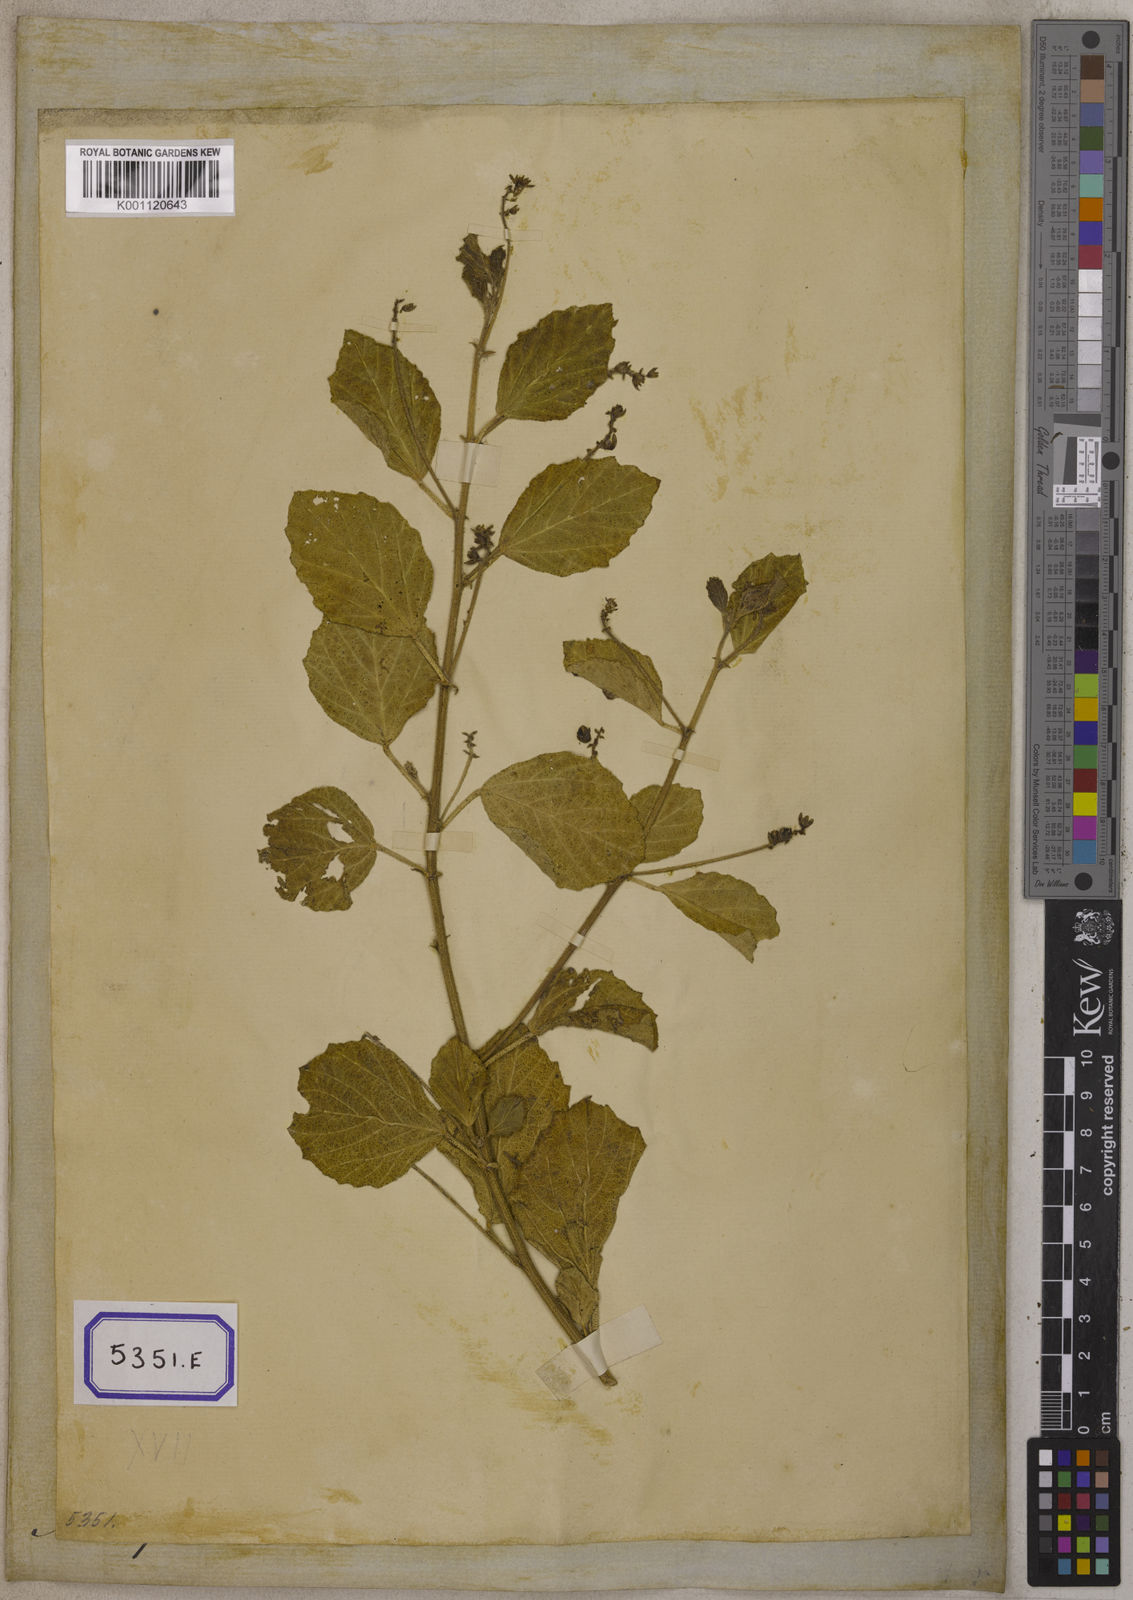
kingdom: Plantae
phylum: Tracheophyta
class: Magnoliopsida
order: Fabales
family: Fabaceae
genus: Cullen
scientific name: Cullen corylifolium
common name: Malaysian scurfpea
